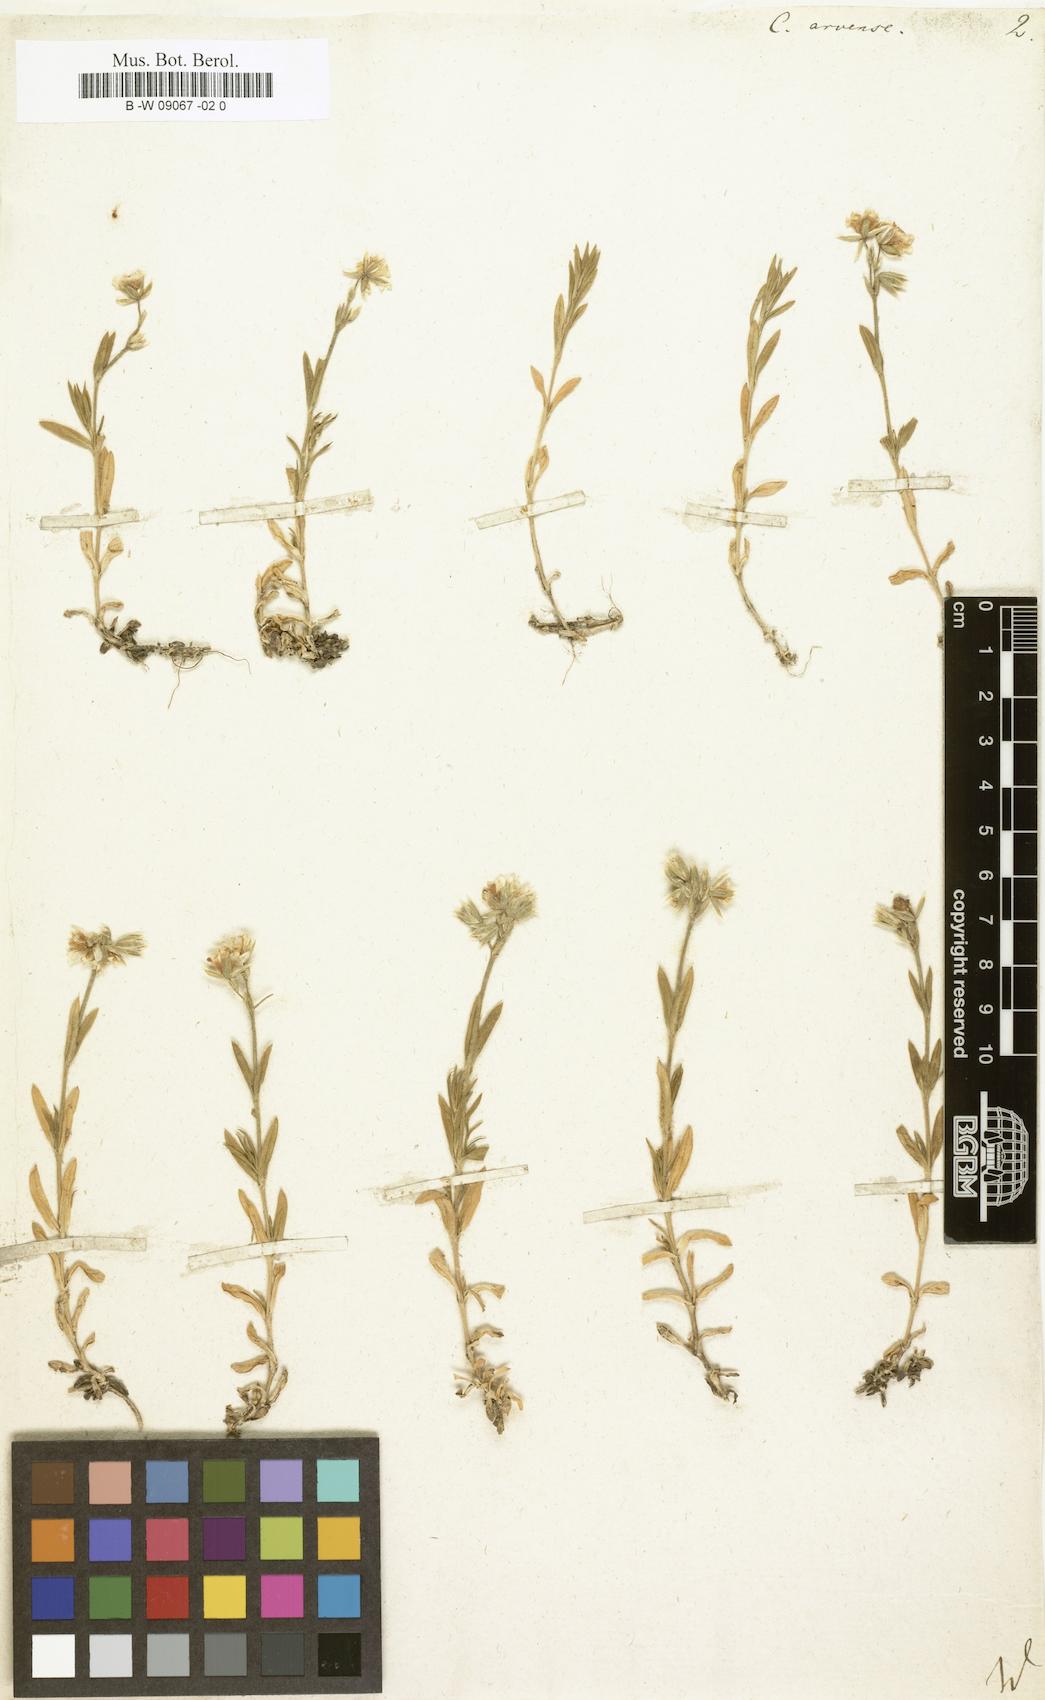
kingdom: Plantae
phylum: Tracheophyta
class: Magnoliopsida
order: Caryophyllales
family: Caryophyllaceae
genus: Cerastium
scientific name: Cerastium arvense
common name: Field mouse-ear
